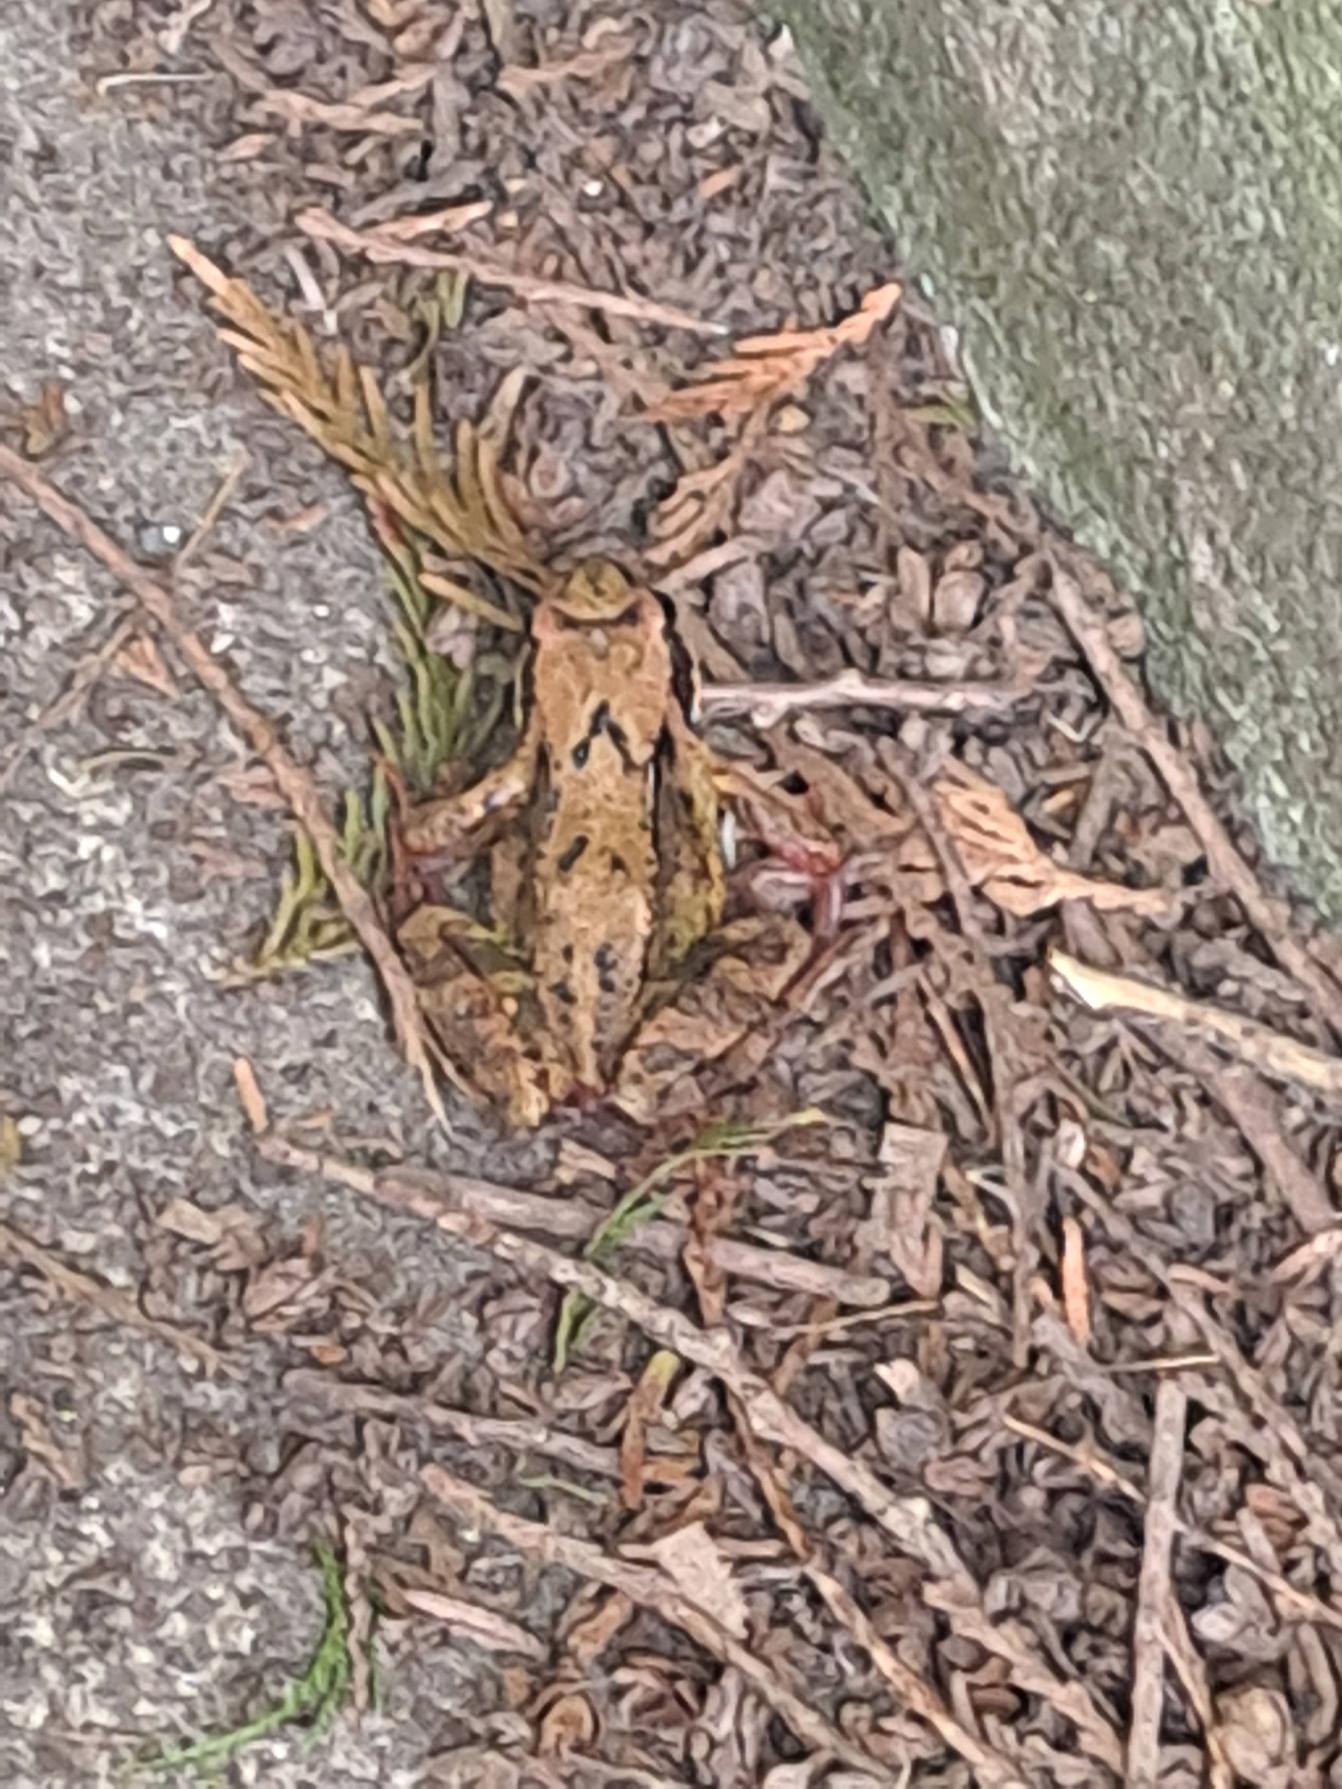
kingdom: Animalia
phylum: Chordata
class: Amphibia
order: Anura
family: Ranidae
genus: Rana
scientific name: Rana temporaria
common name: Butsnudet frø
